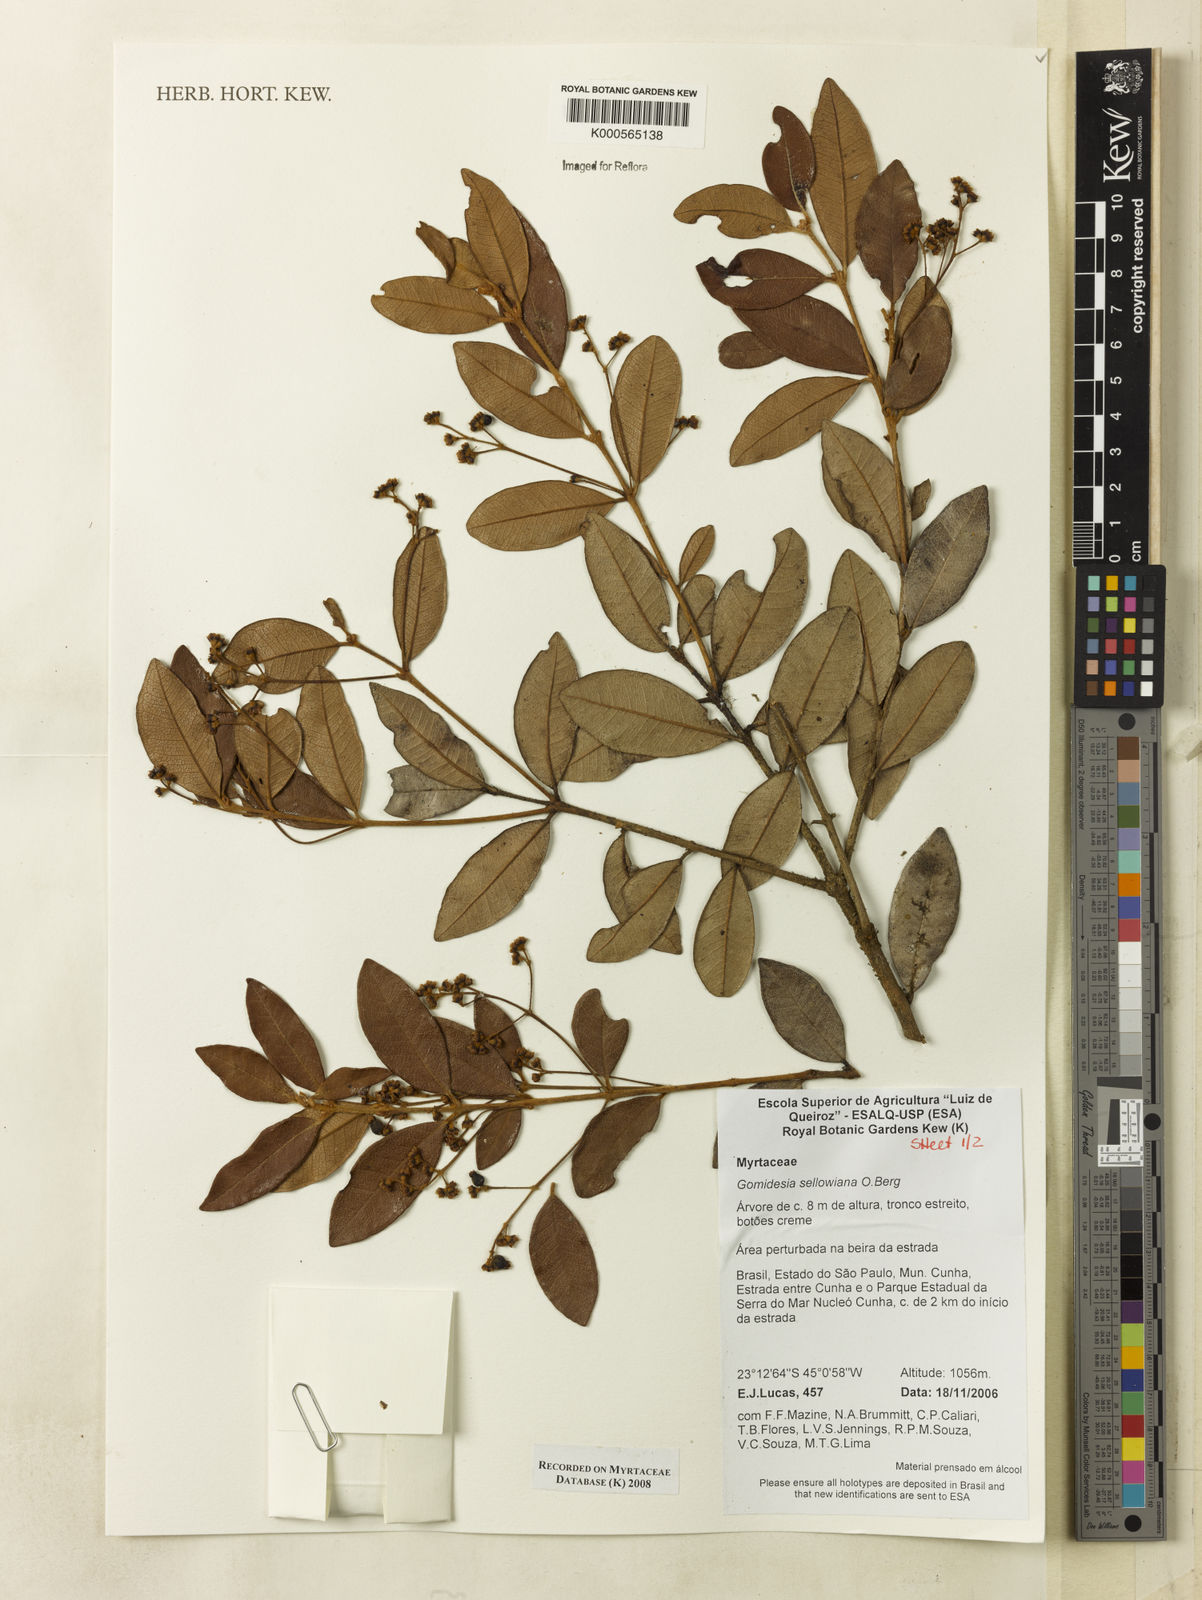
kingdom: Plantae
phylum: Tracheophyta
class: Magnoliopsida
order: Myrtales
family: Myrtaceae
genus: Myrcia
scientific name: Myrcia hartwegiana
